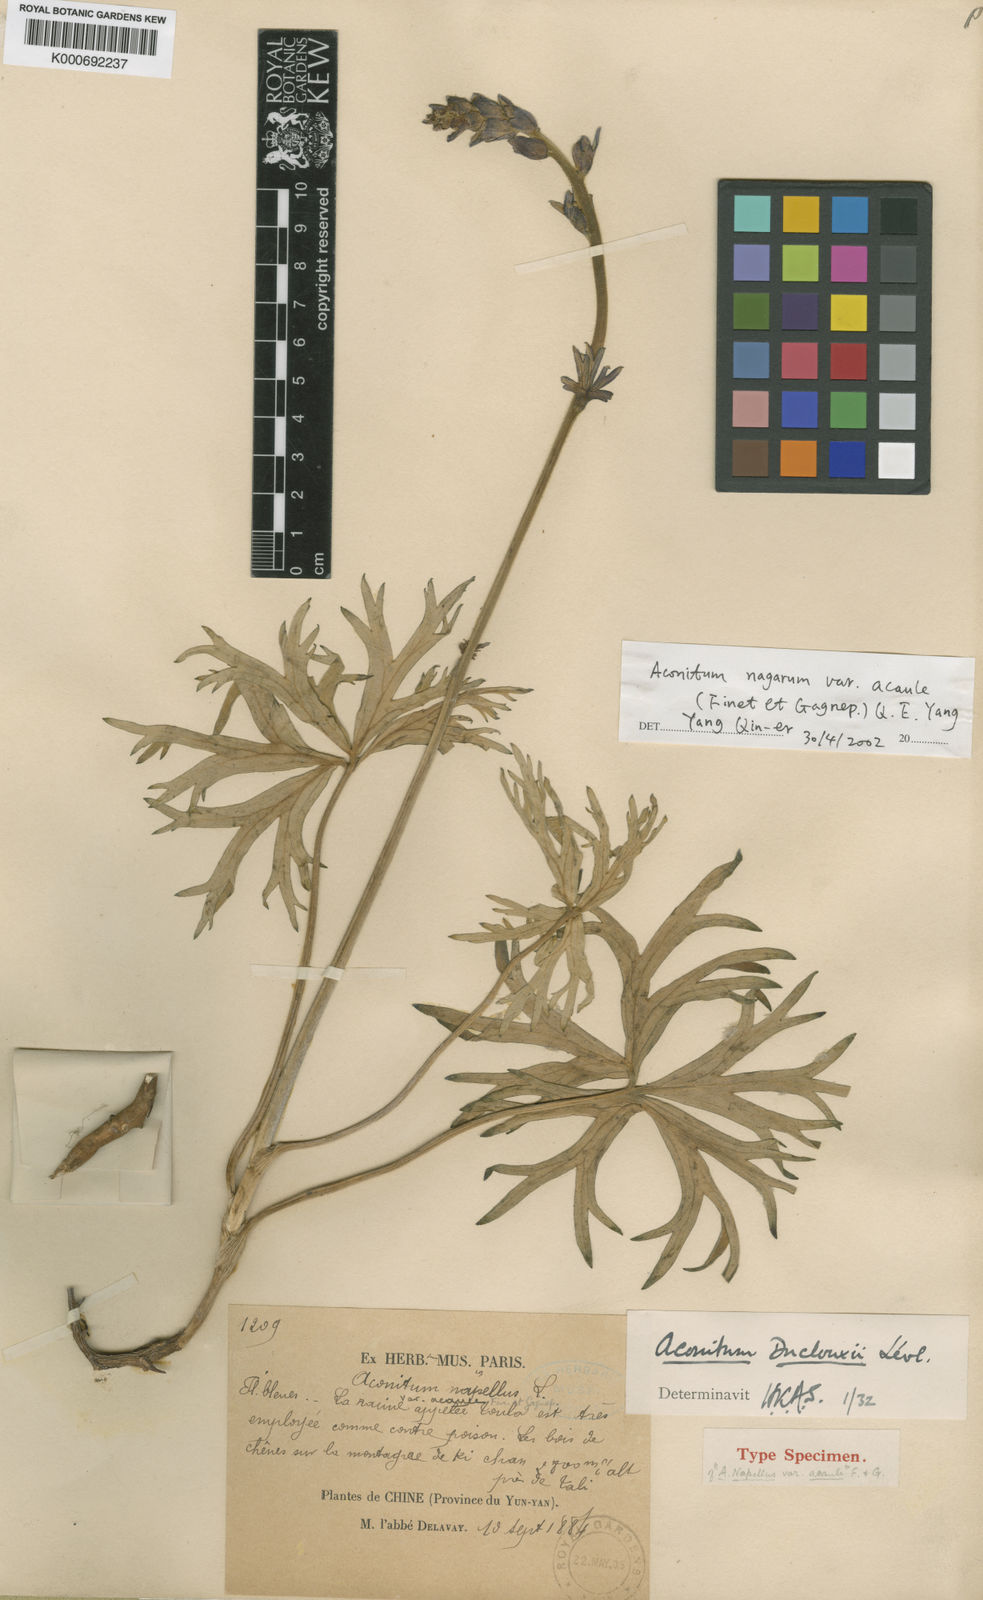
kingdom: Plantae
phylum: Tracheophyta
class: Magnoliopsida
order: Ranunculales
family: Ranunculaceae
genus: Aconitum
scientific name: Aconitum
